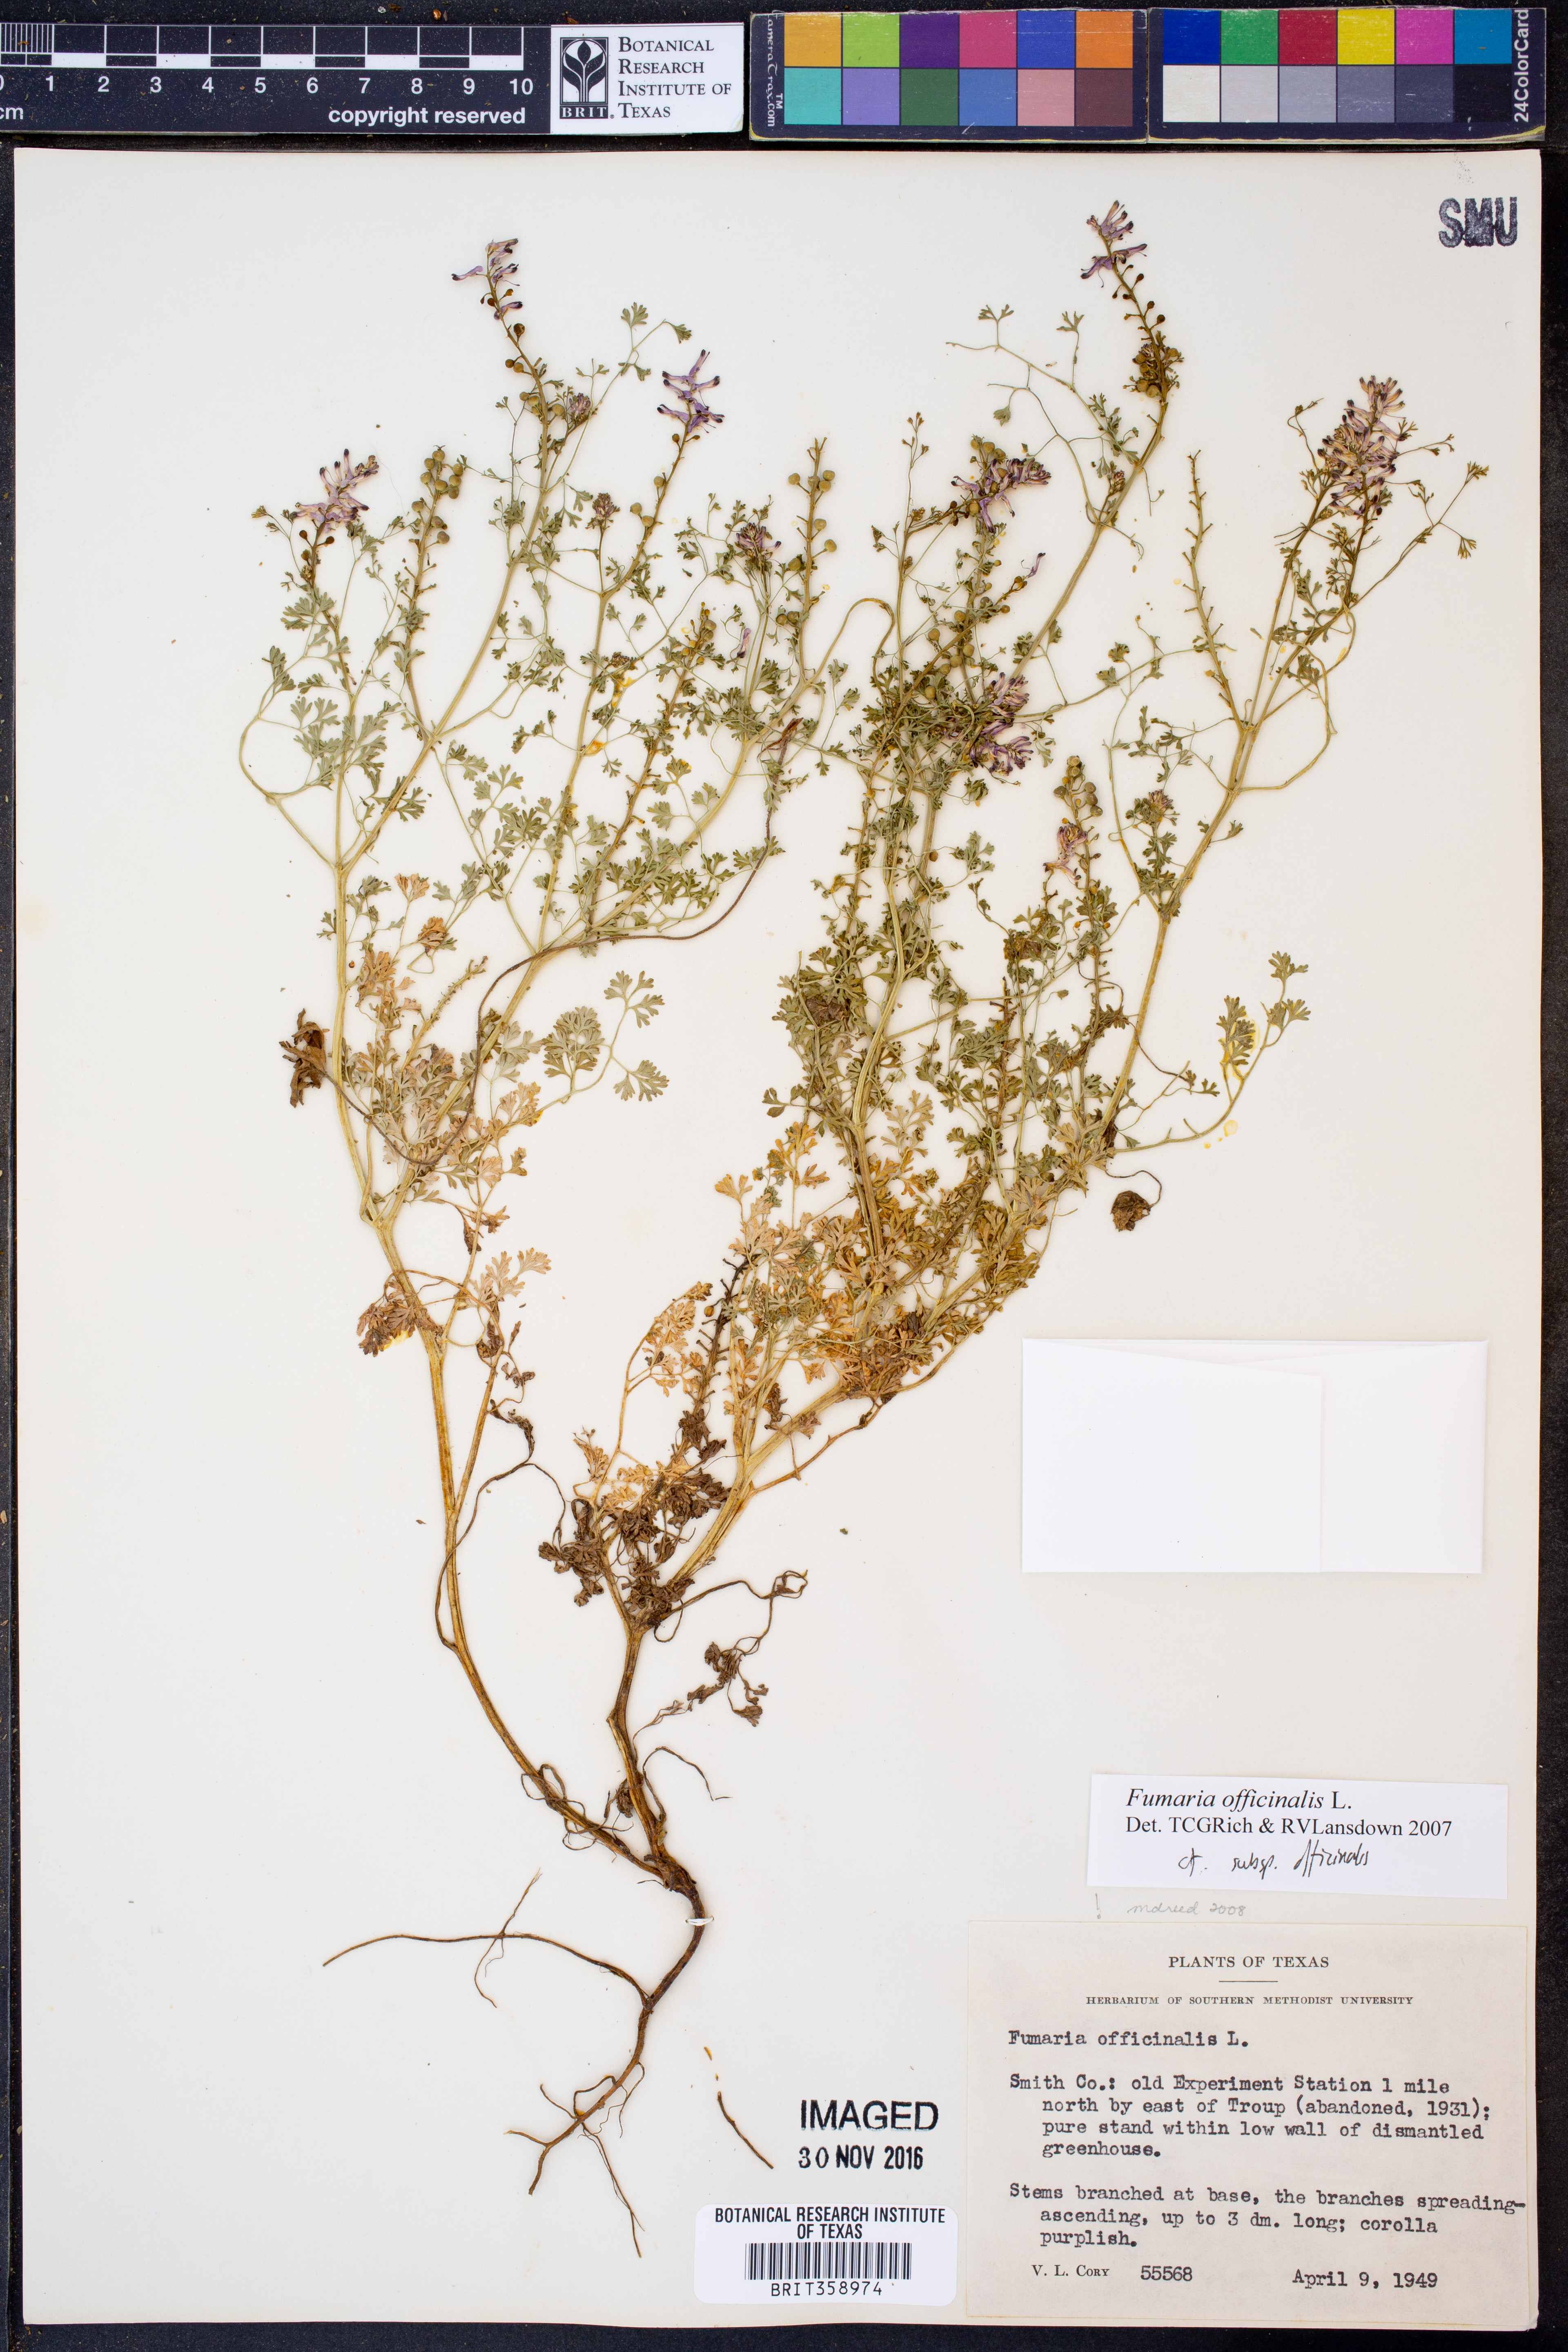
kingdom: Plantae
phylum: Tracheophyta
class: Magnoliopsida
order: Ranunculales
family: Papaveraceae
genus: Fumaria
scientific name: Fumaria officinalis
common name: Common fumitory
